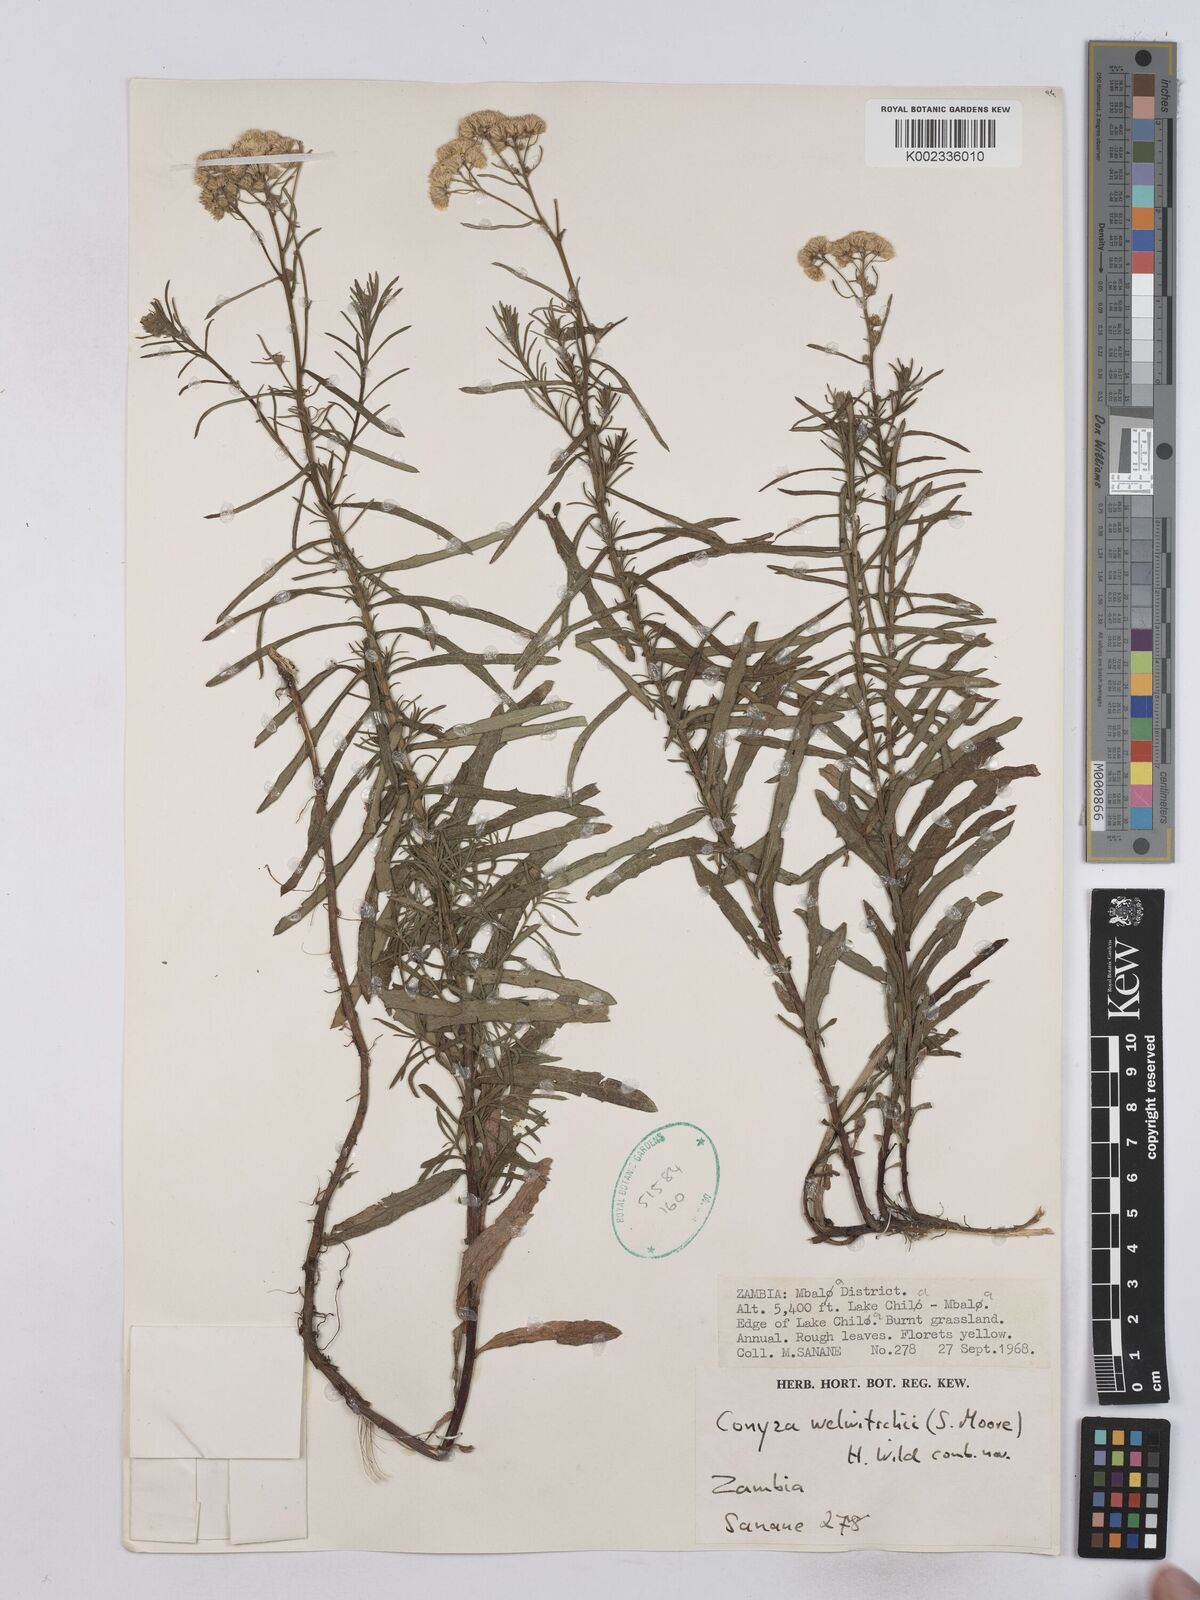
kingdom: Plantae
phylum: Tracheophyta
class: Magnoliopsida
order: Asterales
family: Asteraceae
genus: Nidorella
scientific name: Nidorella welwitschii
